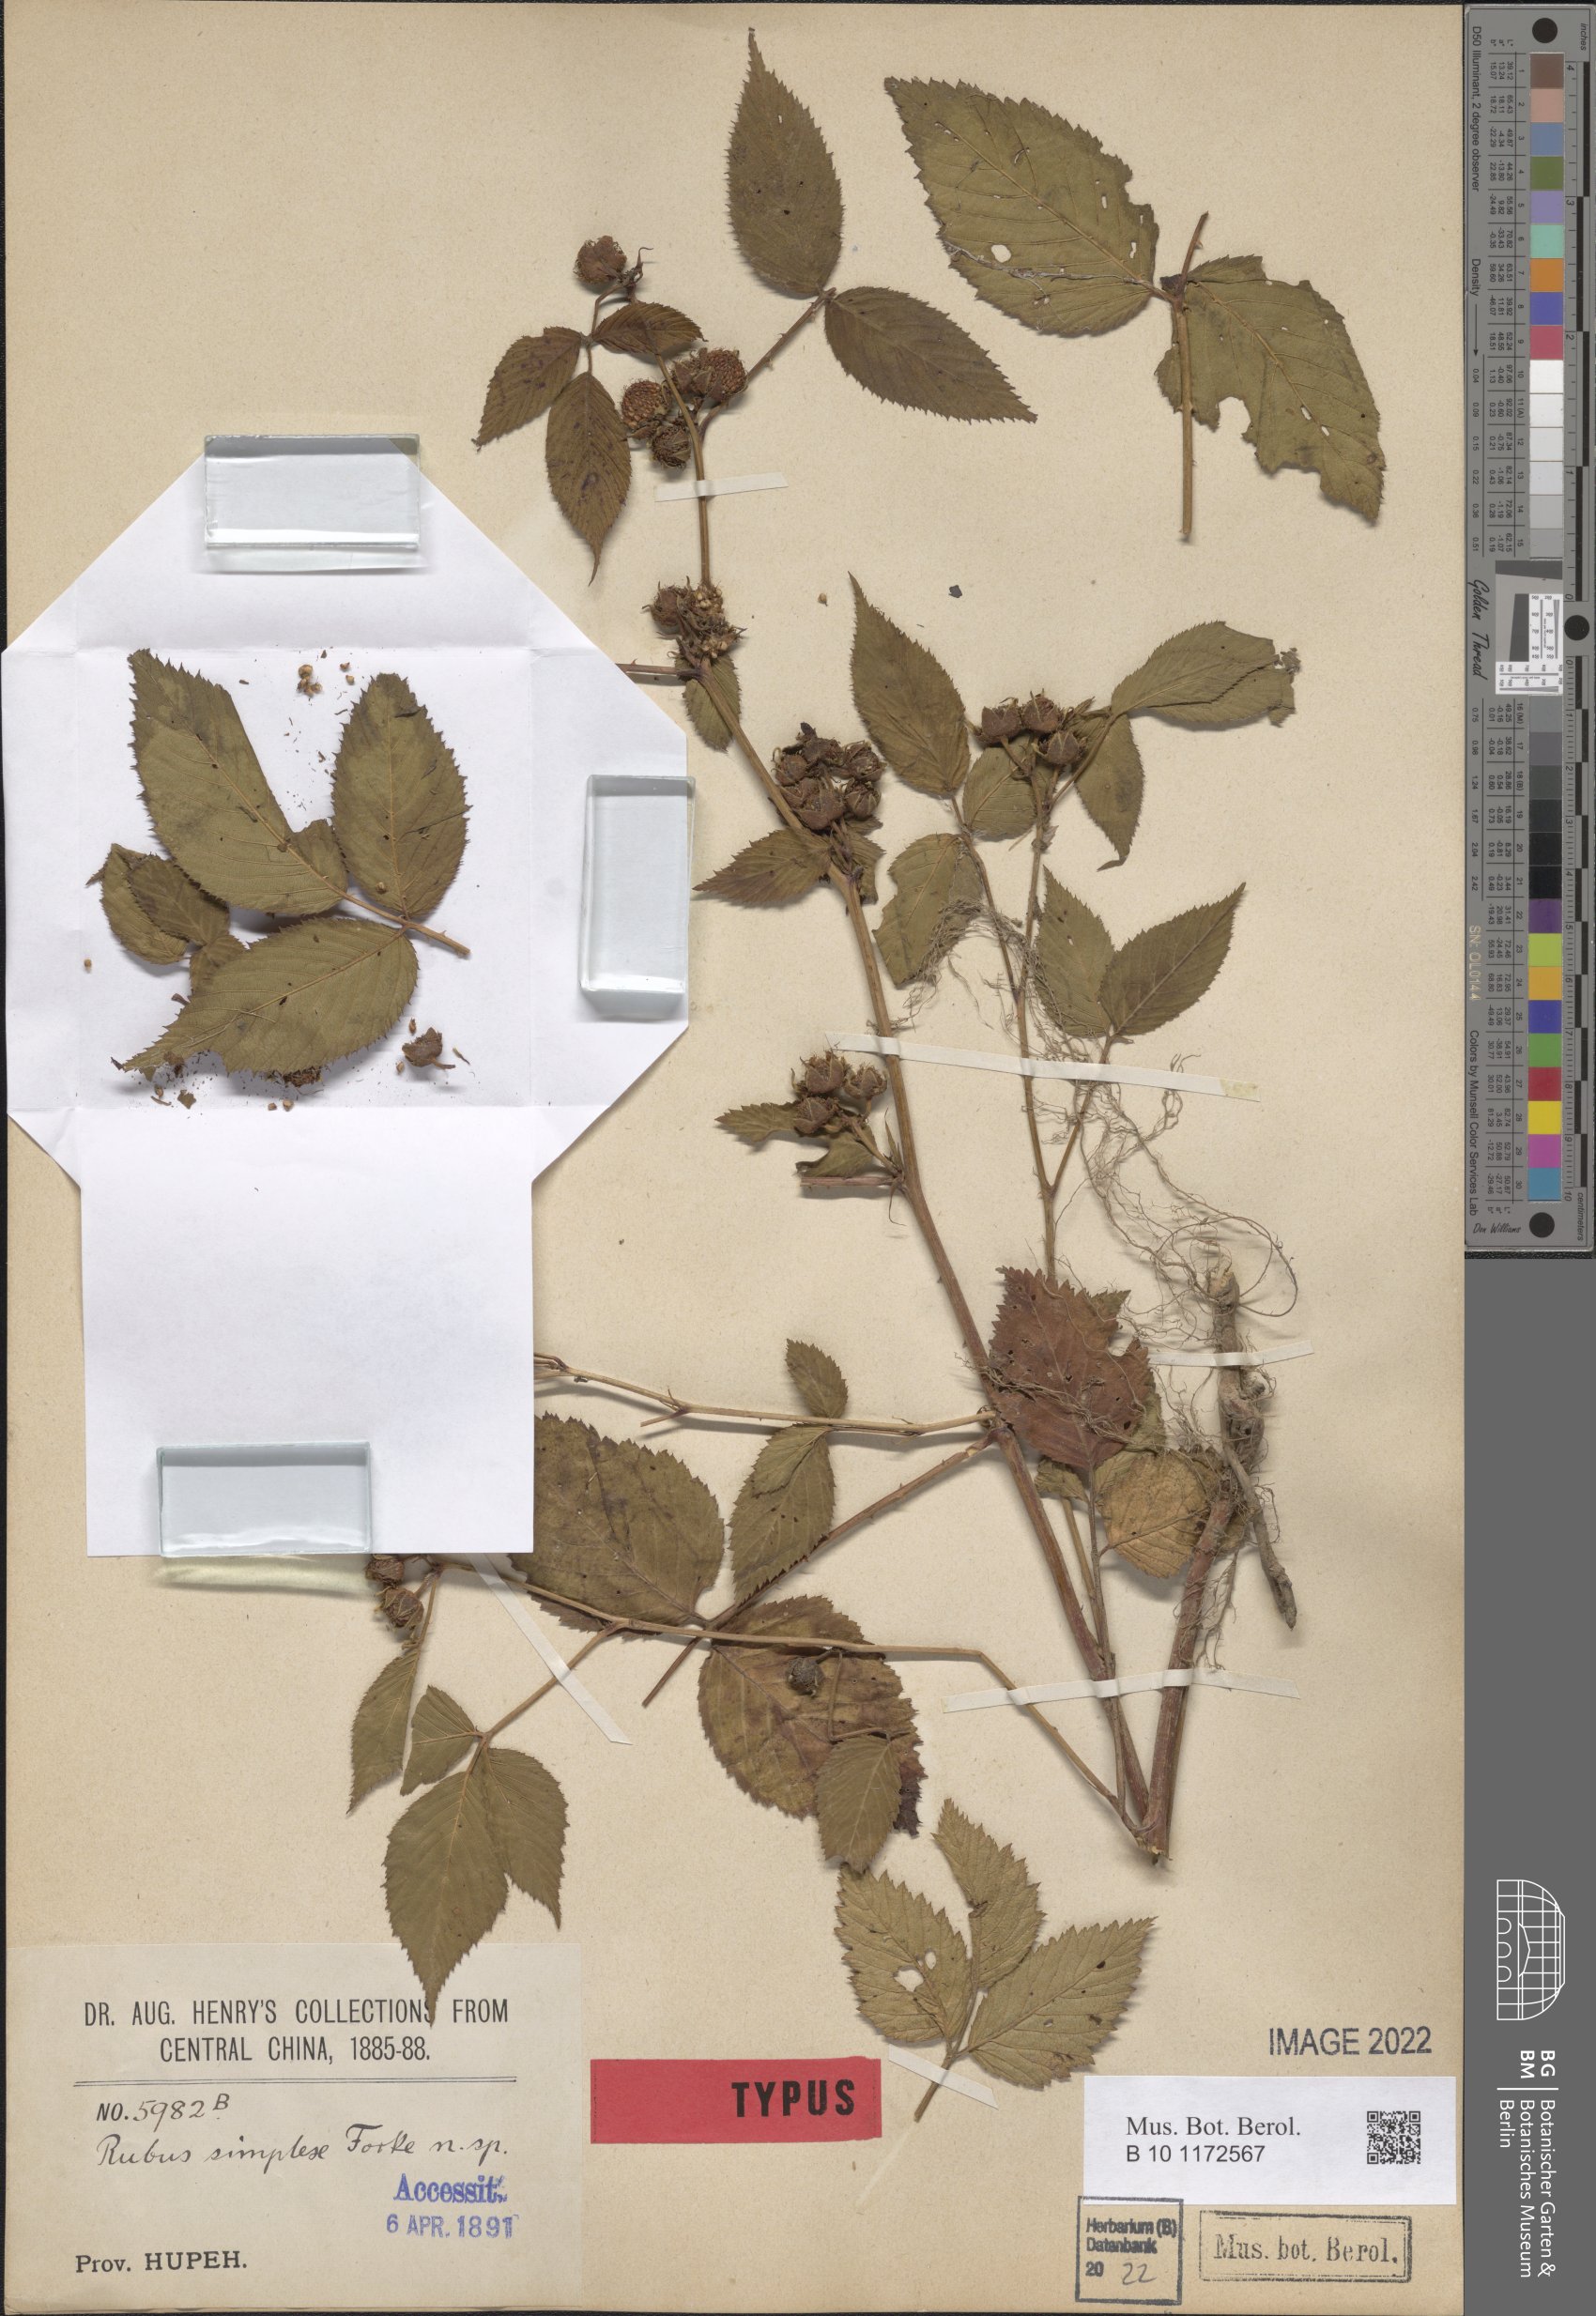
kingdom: Plantae
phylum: Tracheophyta
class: Magnoliopsida
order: Rosales
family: Rosaceae
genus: Rubus
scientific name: Rubus simplex
